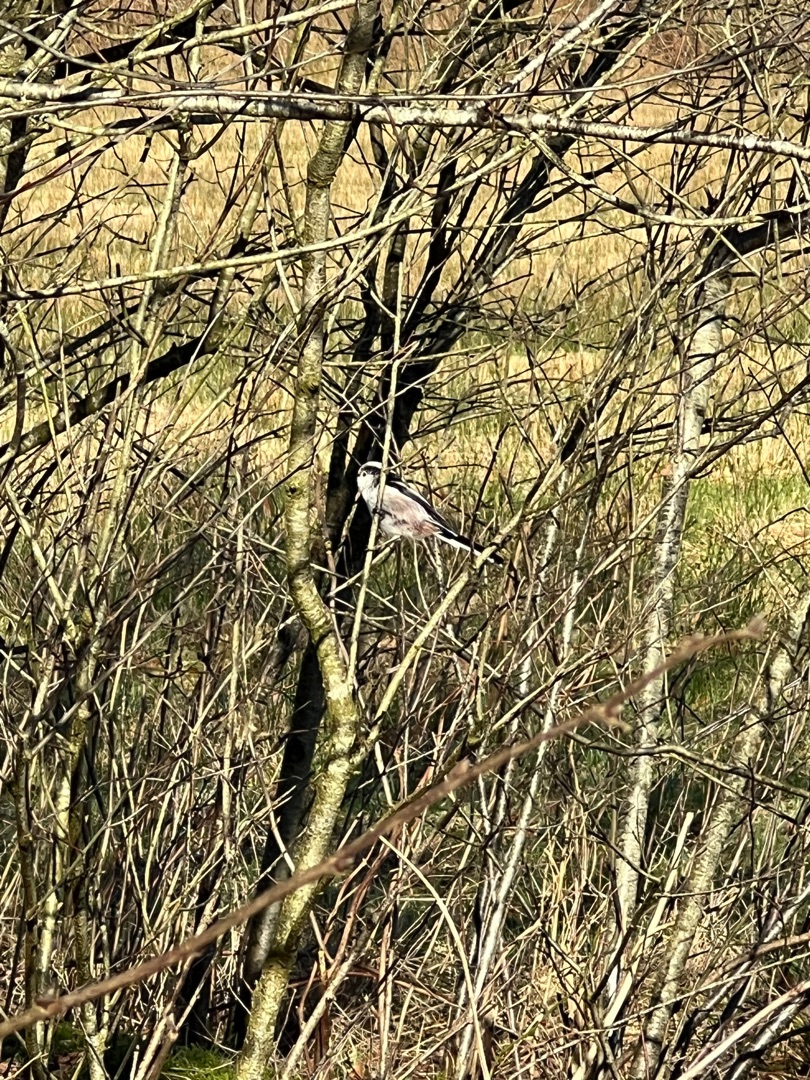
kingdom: Animalia
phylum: Chordata
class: Aves
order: Passeriformes
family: Aegithalidae
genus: Aegithalos
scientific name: Aegithalos caudatus
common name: Halemejse
